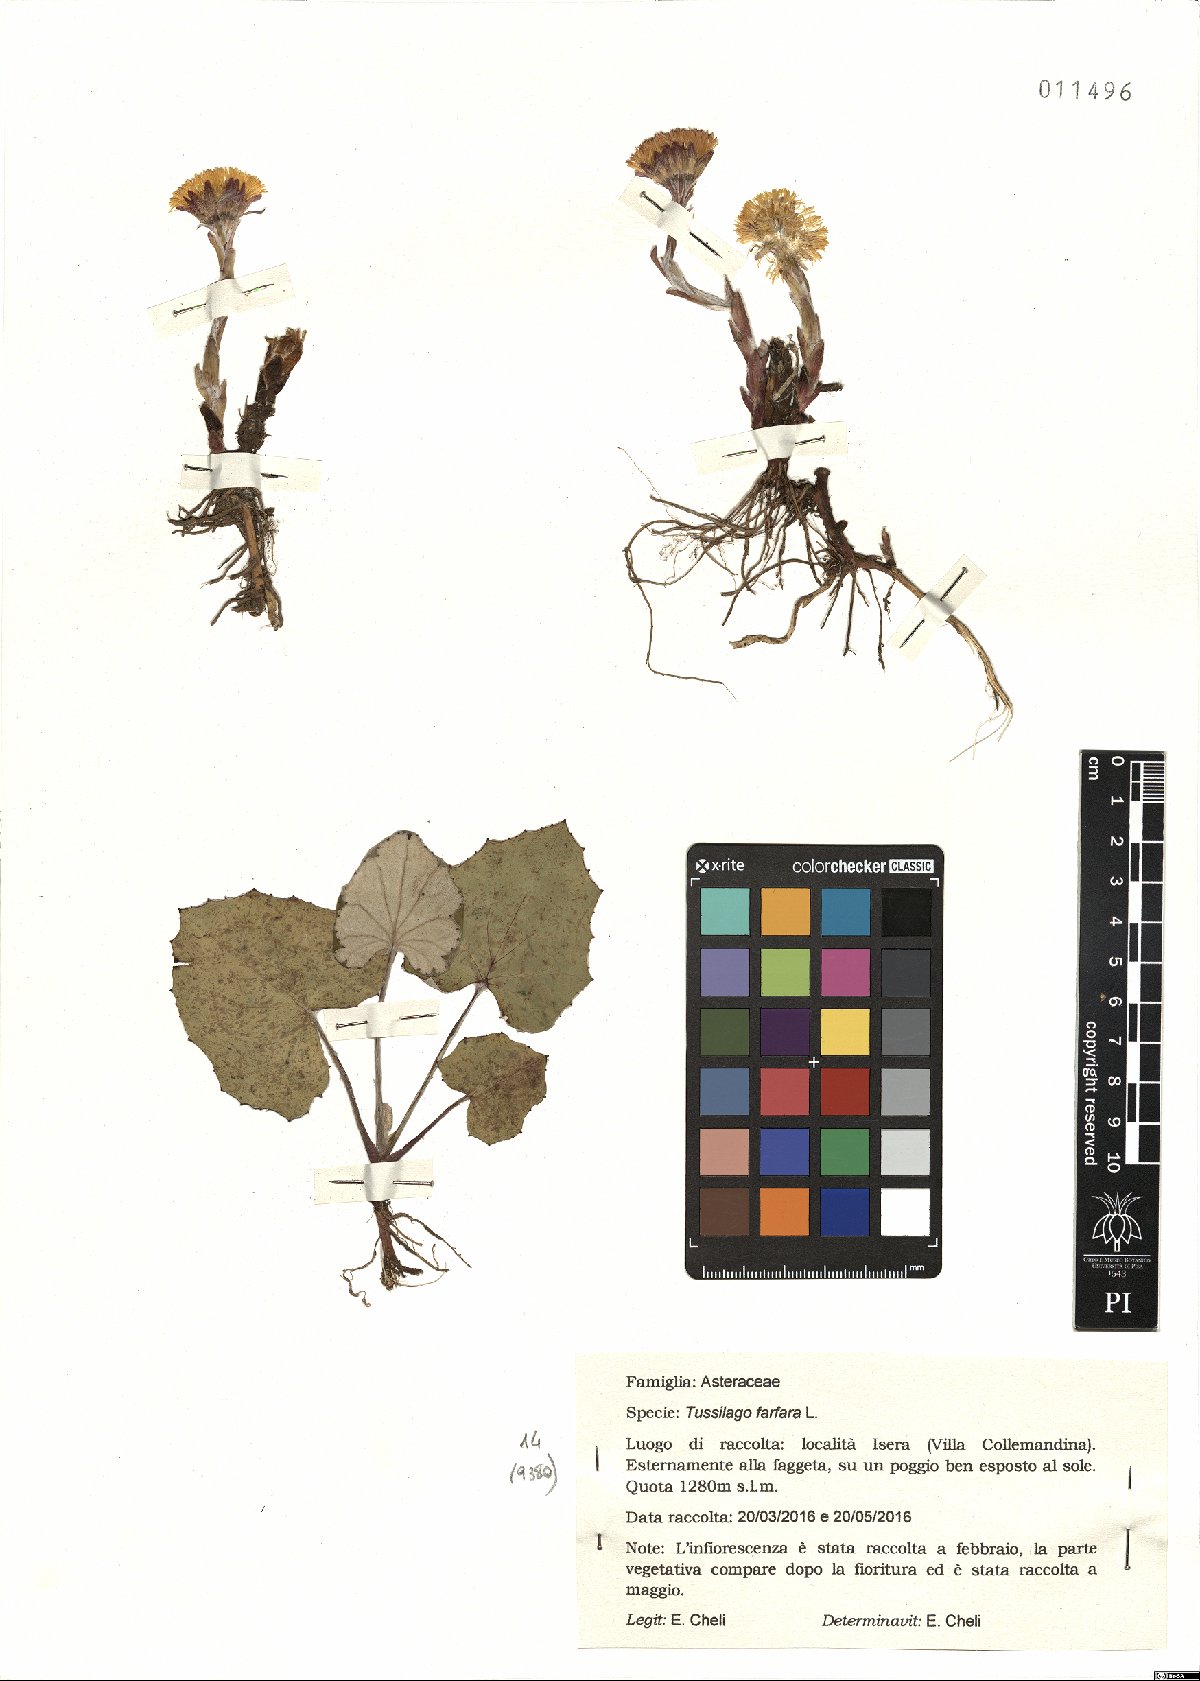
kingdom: Plantae
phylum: Tracheophyta
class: Magnoliopsida
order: Asterales
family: Asteraceae
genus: Tussilago
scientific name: Tussilago farfara
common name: Coltsfoot
